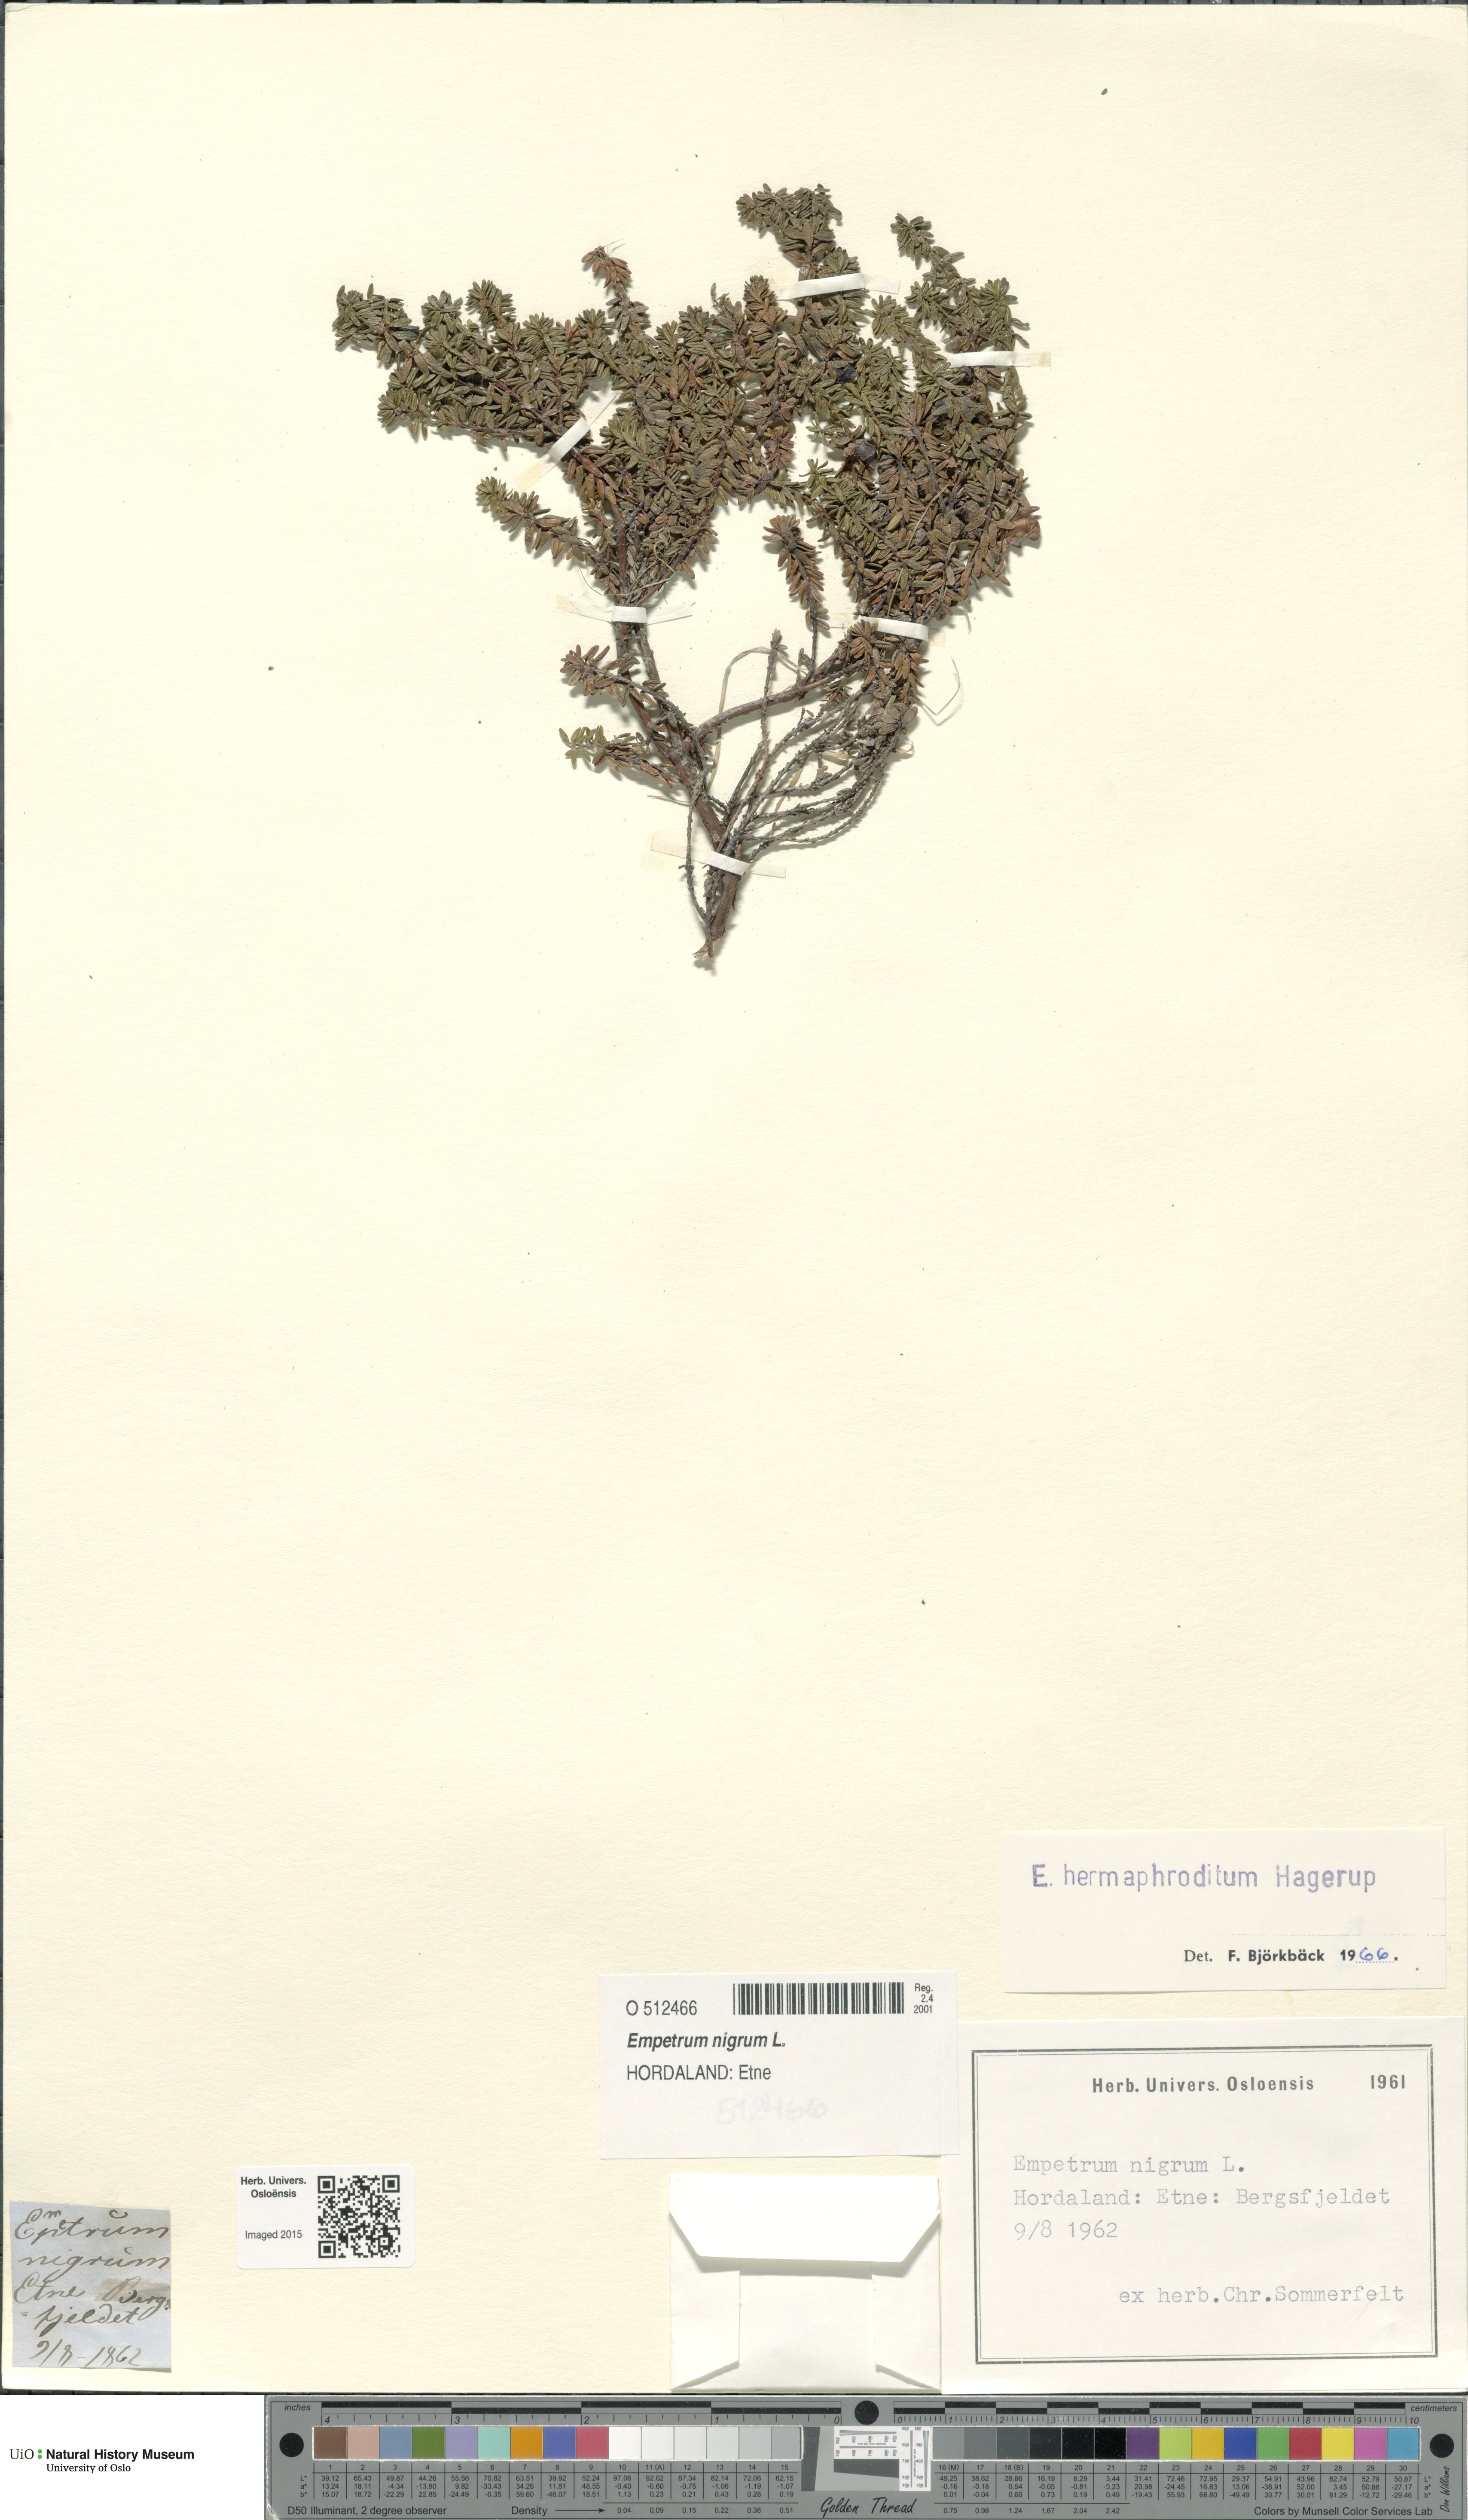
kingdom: Plantae
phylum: Tracheophyta
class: Magnoliopsida
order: Ericales
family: Ericaceae
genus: Empetrum
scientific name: Empetrum hermaphroditum
